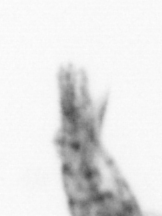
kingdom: Animalia
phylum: Arthropoda
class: Copepoda
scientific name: Copepoda
